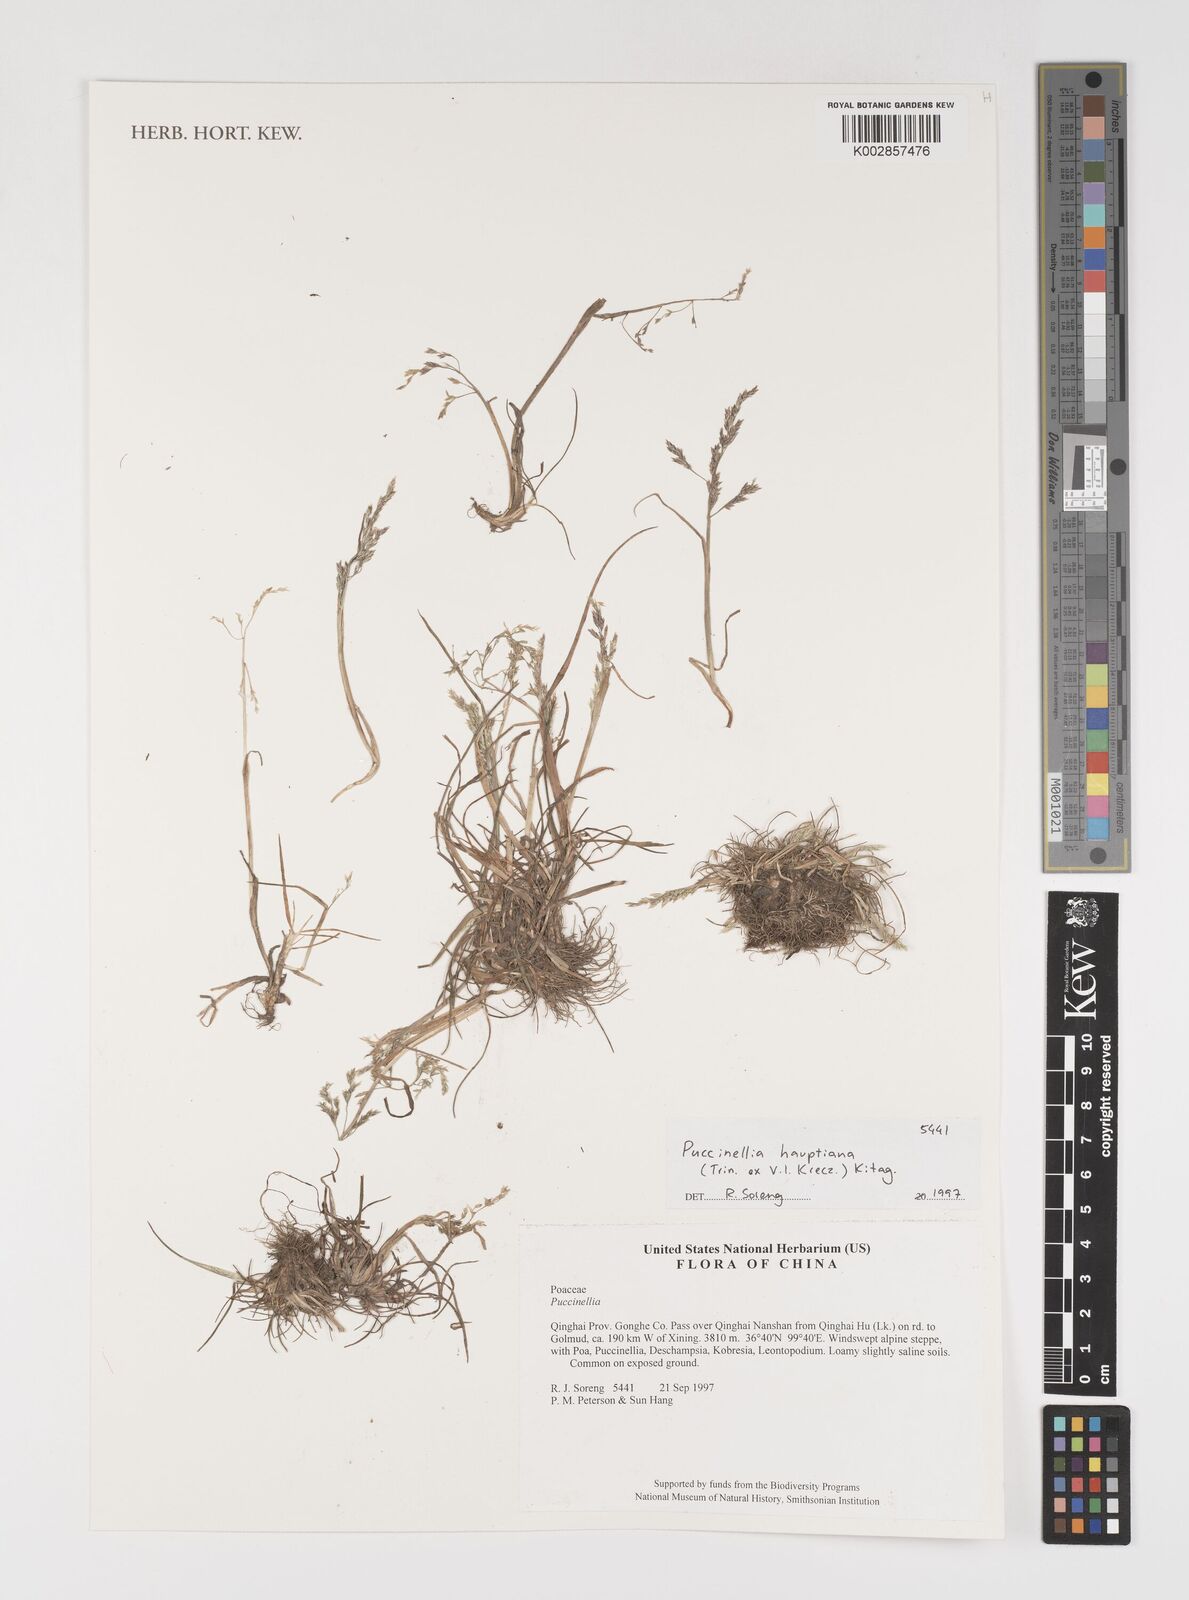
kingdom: Plantae
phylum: Tracheophyta
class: Liliopsida
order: Poales
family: Poaceae
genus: Puccinellia
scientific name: Puccinellia distans
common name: Weeping alkaligrass
